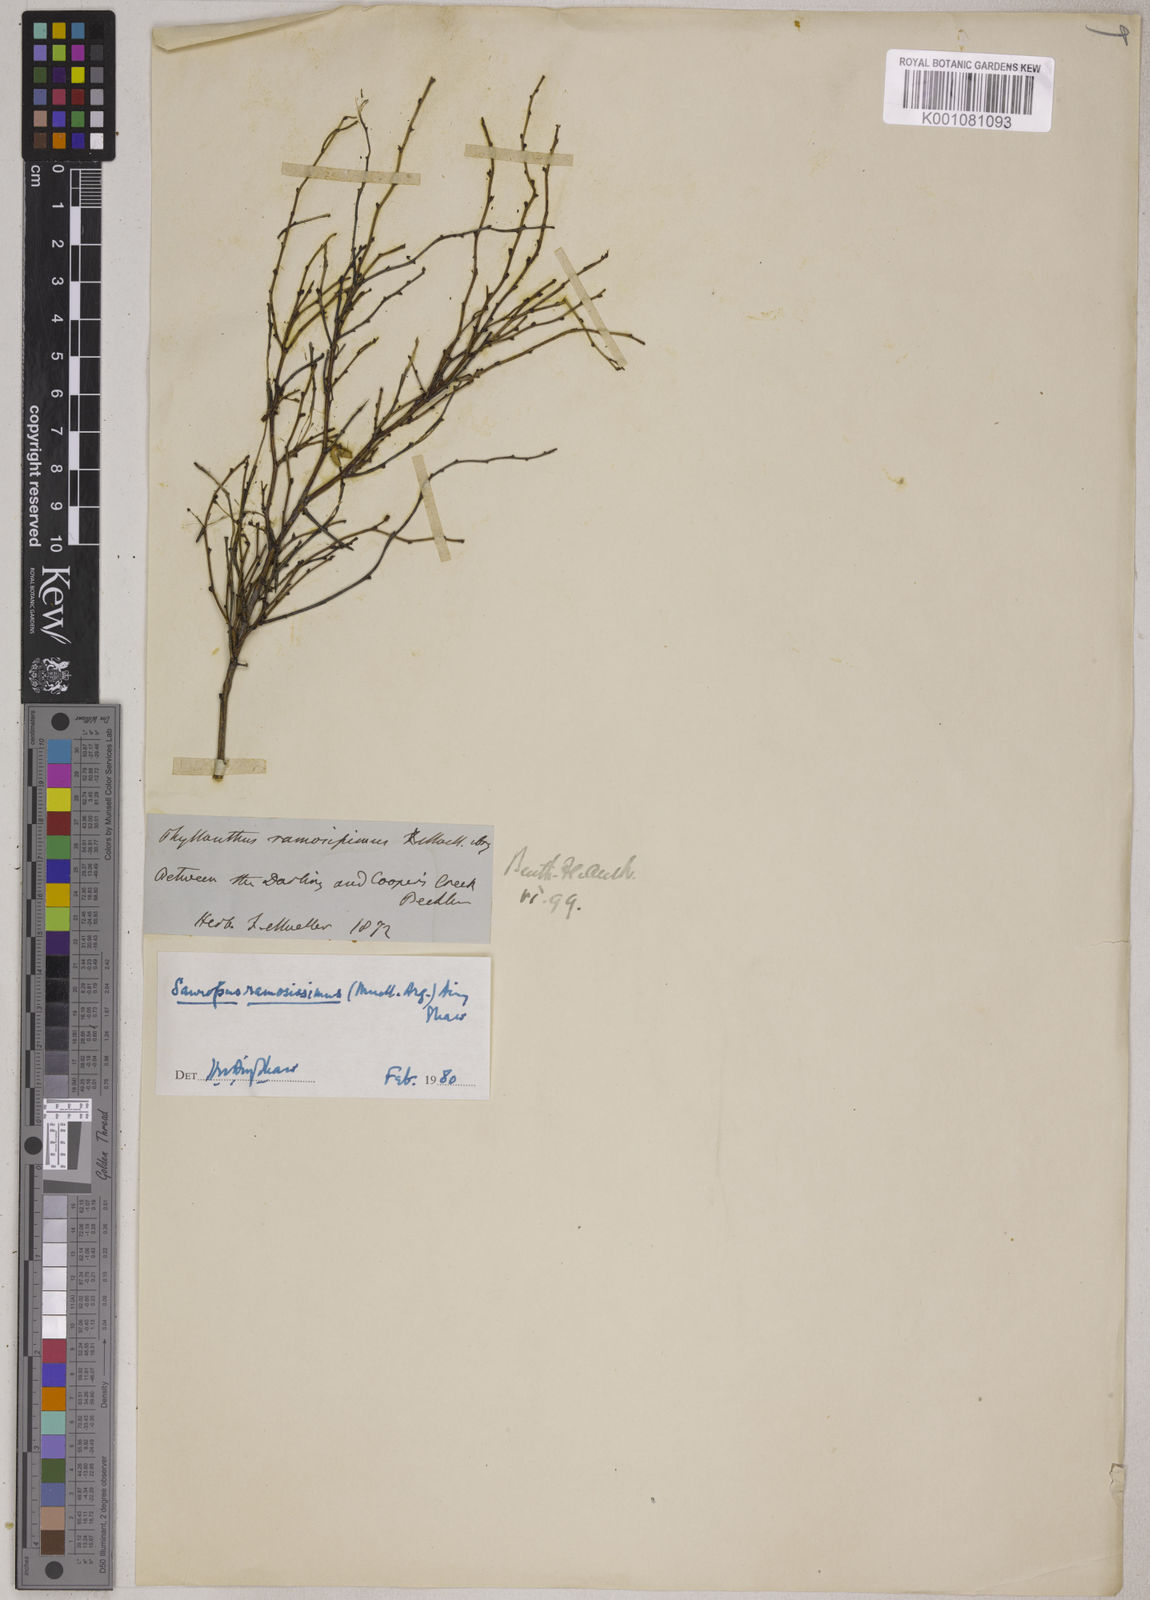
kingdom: Plantae
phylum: Tracheophyta
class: Magnoliopsida
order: Malpighiales
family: Phyllanthaceae
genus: Synostemon
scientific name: Synostemon ramosissimus
